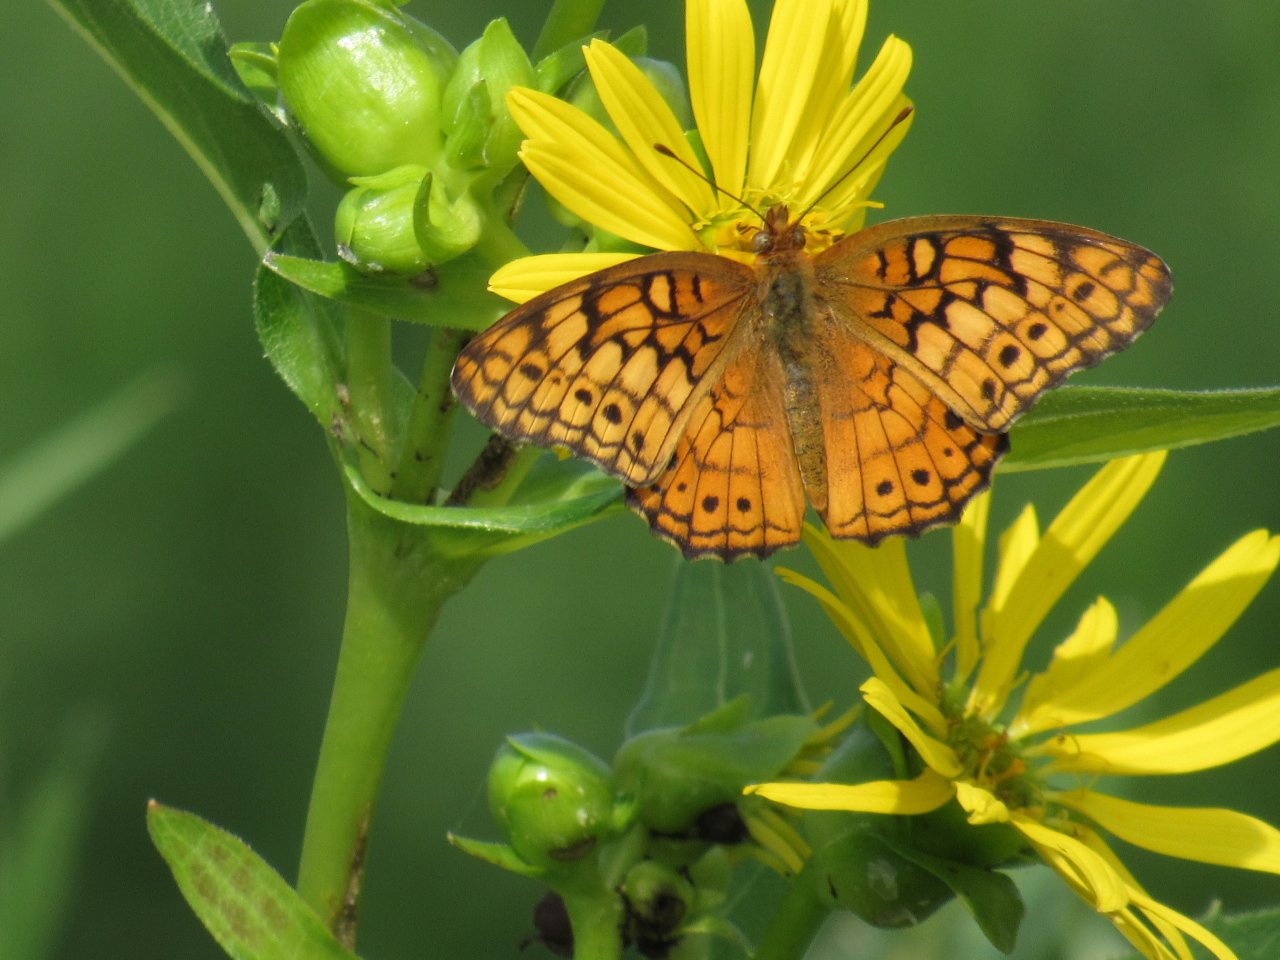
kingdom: Animalia
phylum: Arthropoda
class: Insecta
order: Lepidoptera
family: Nymphalidae
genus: Euptoieta
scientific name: Euptoieta claudia
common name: Variegated Fritillary
